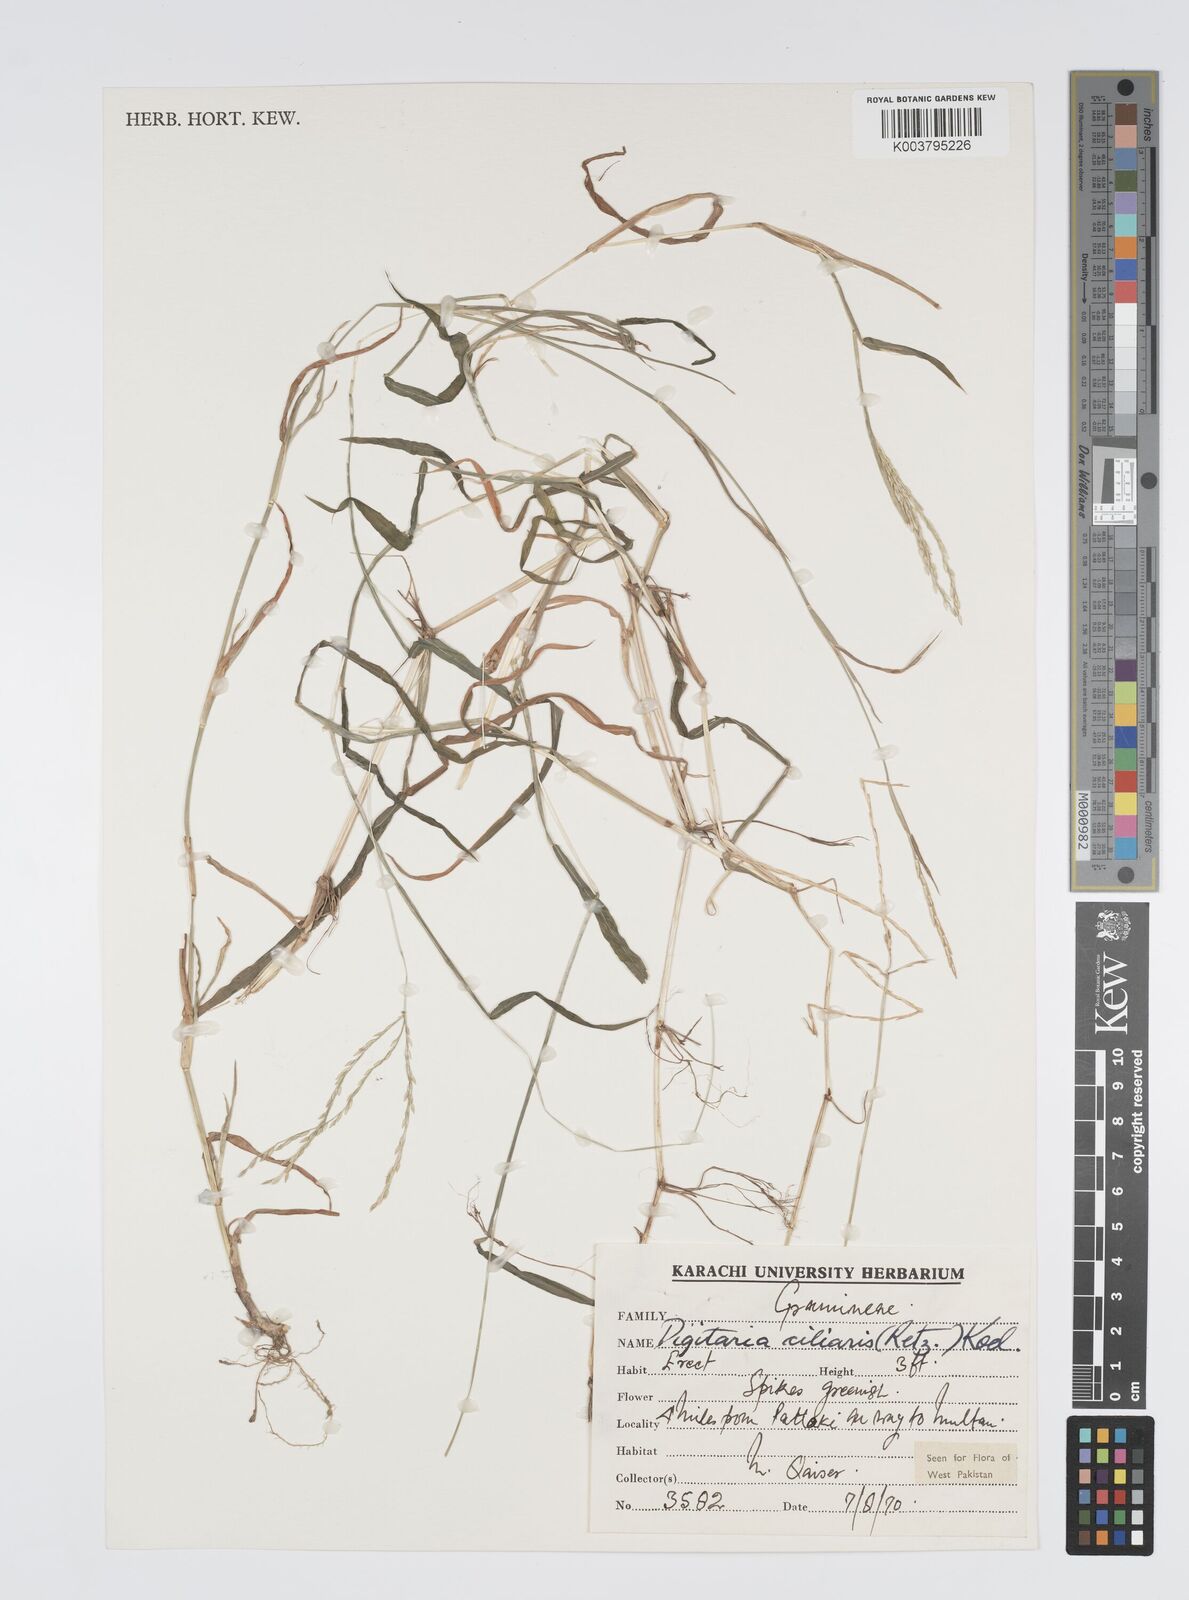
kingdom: Plantae
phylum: Tracheophyta
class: Liliopsida
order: Poales
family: Poaceae
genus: Digitaria
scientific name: Digitaria ciliaris
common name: Tropical finger-grass
